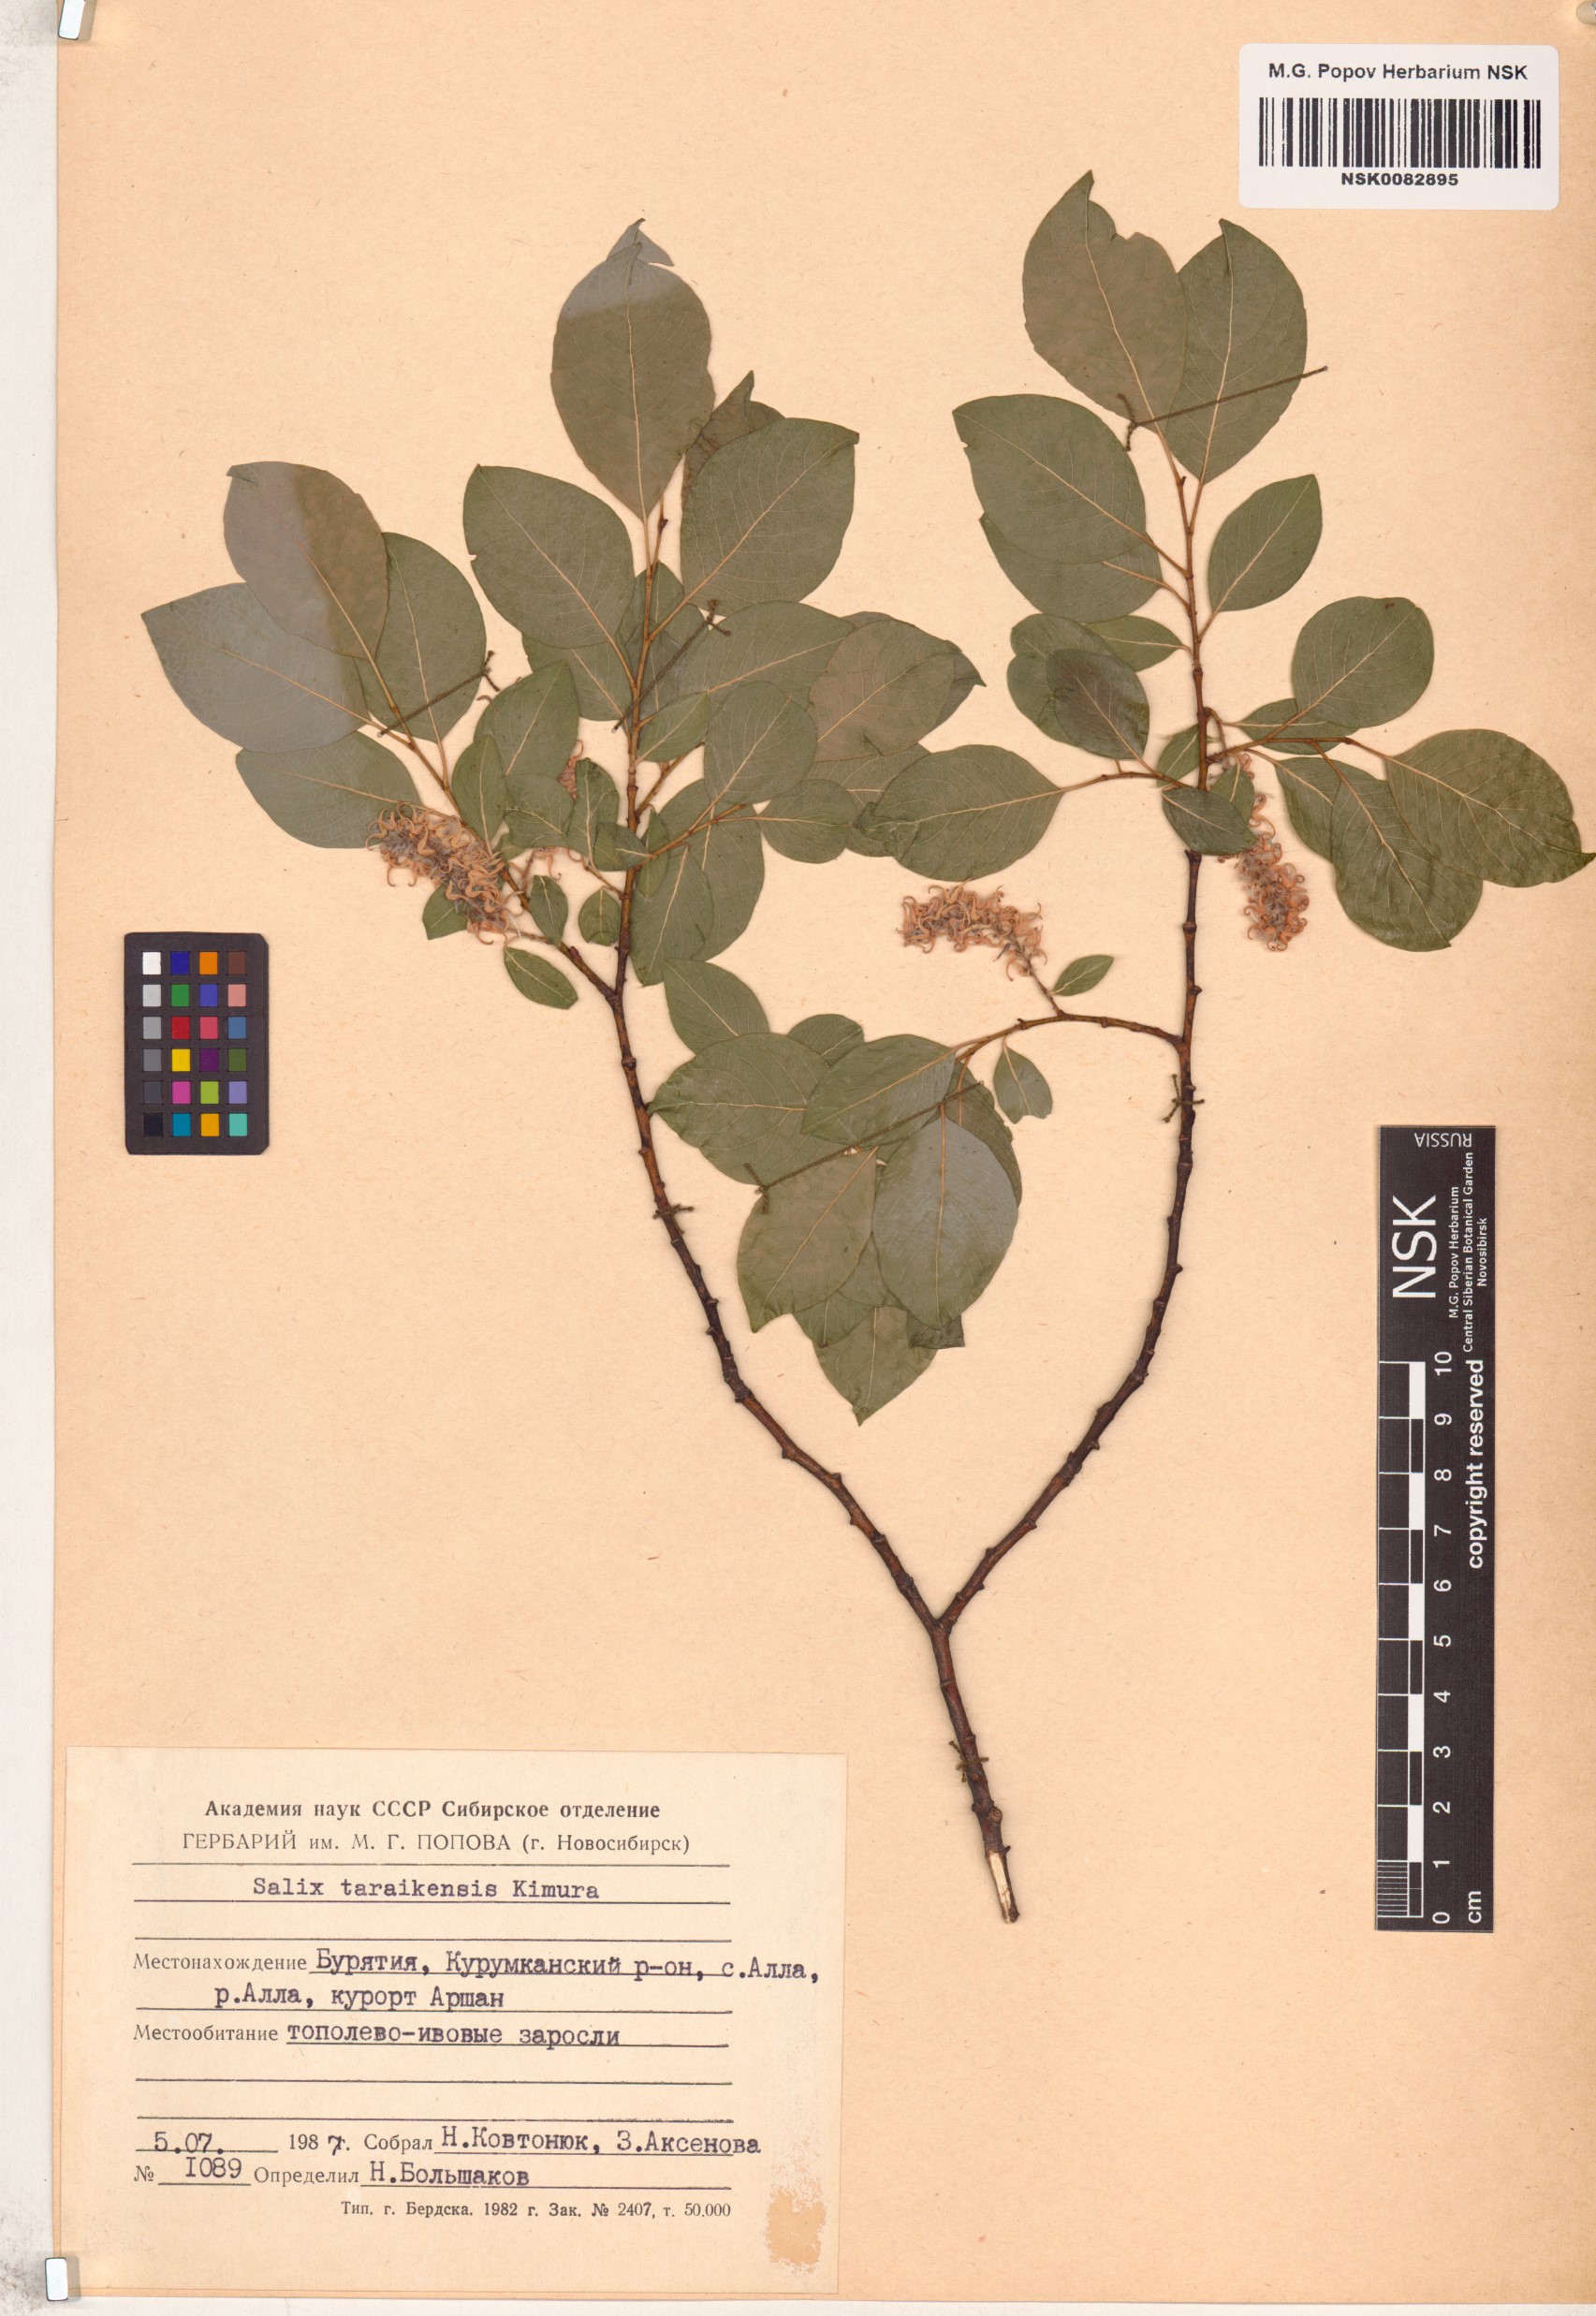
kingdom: Plantae
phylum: Tracheophyta
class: Magnoliopsida
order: Malpighiales
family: Salicaceae
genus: Salix
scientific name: Salix taraikensis
